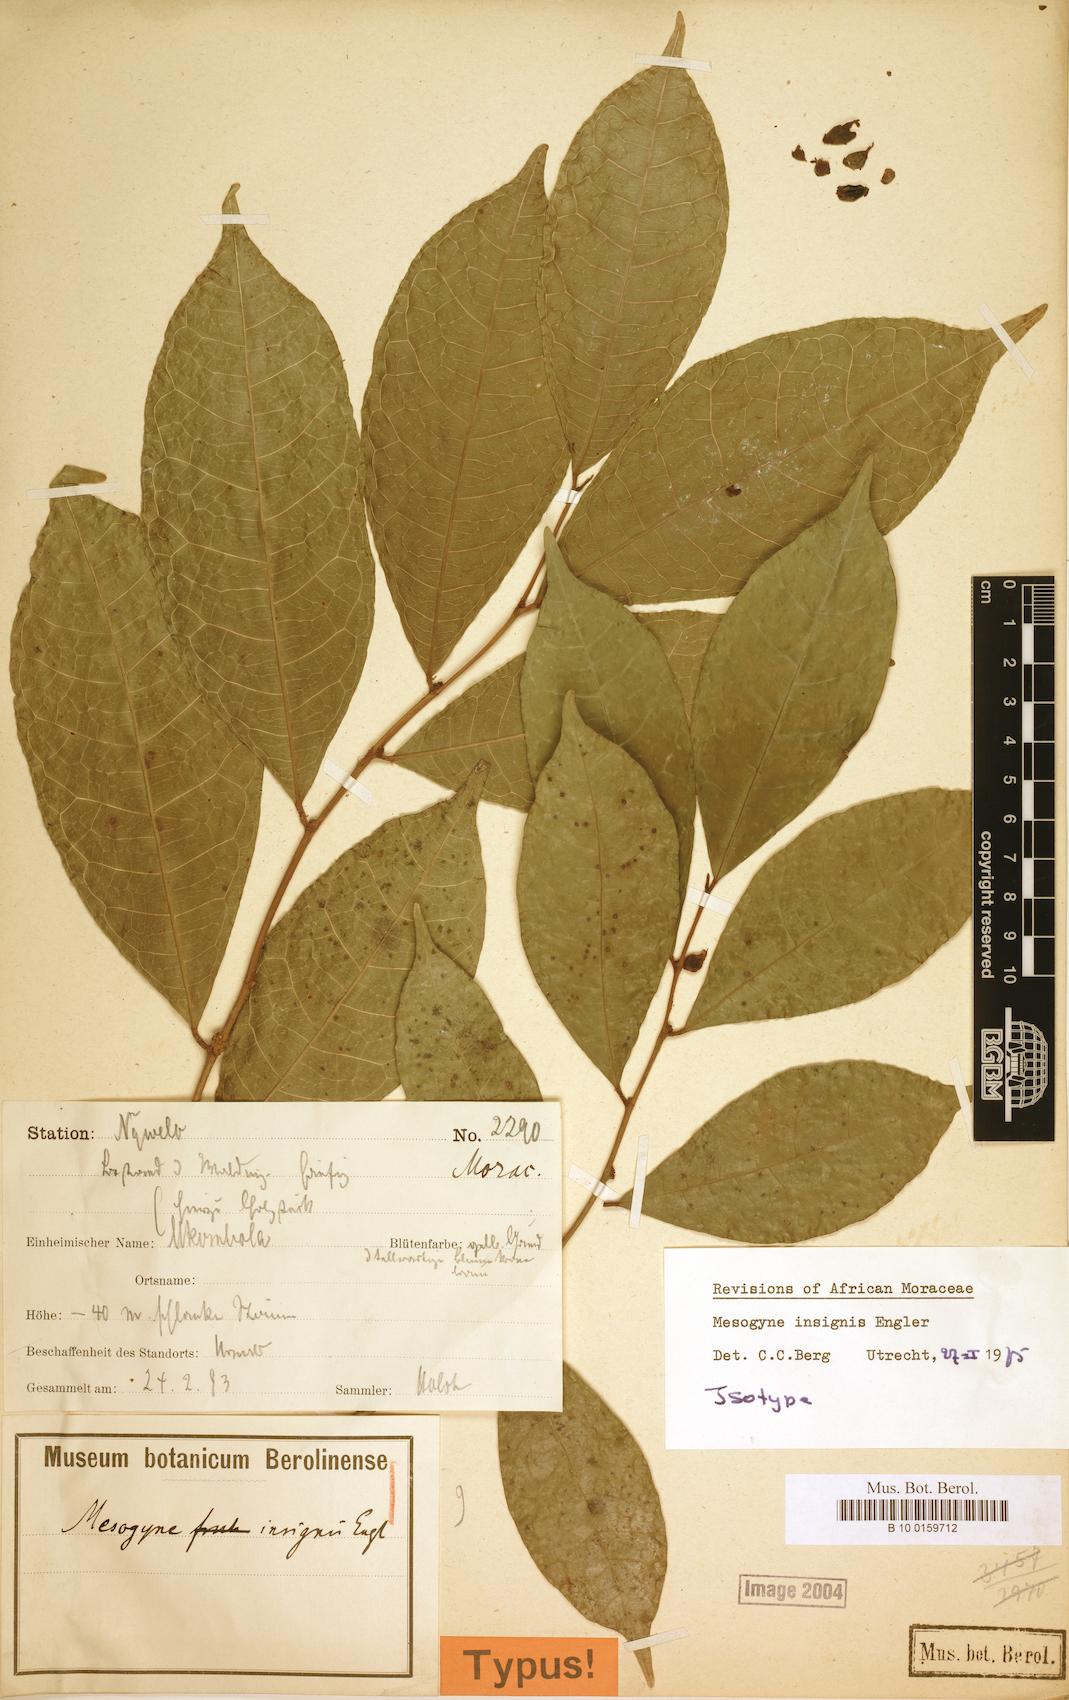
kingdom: Plantae
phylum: Tracheophyta
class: Magnoliopsida
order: Rosales
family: Moraceae
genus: Mesogyne
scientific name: Mesogyne insignis
